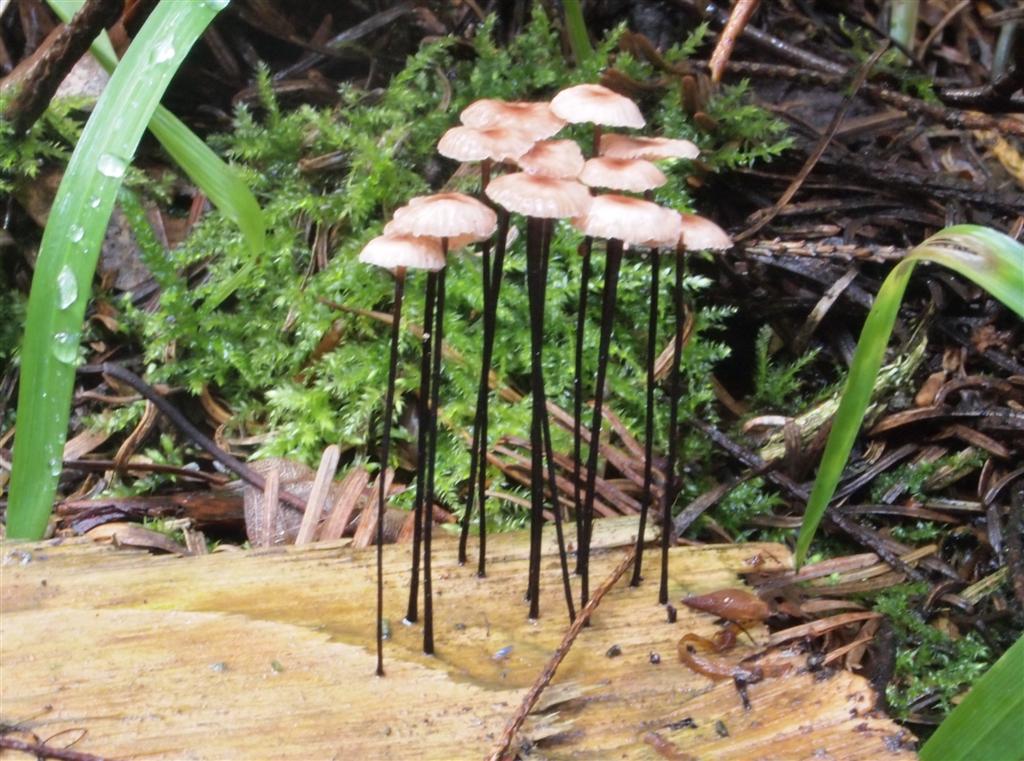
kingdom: Fungi
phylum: Basidiomycota
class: Agaricomycetes
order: Agaricales
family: Omphalotaceae
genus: Gymnopus
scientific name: Gymnopus androsaceus
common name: trådstokket fladhat
